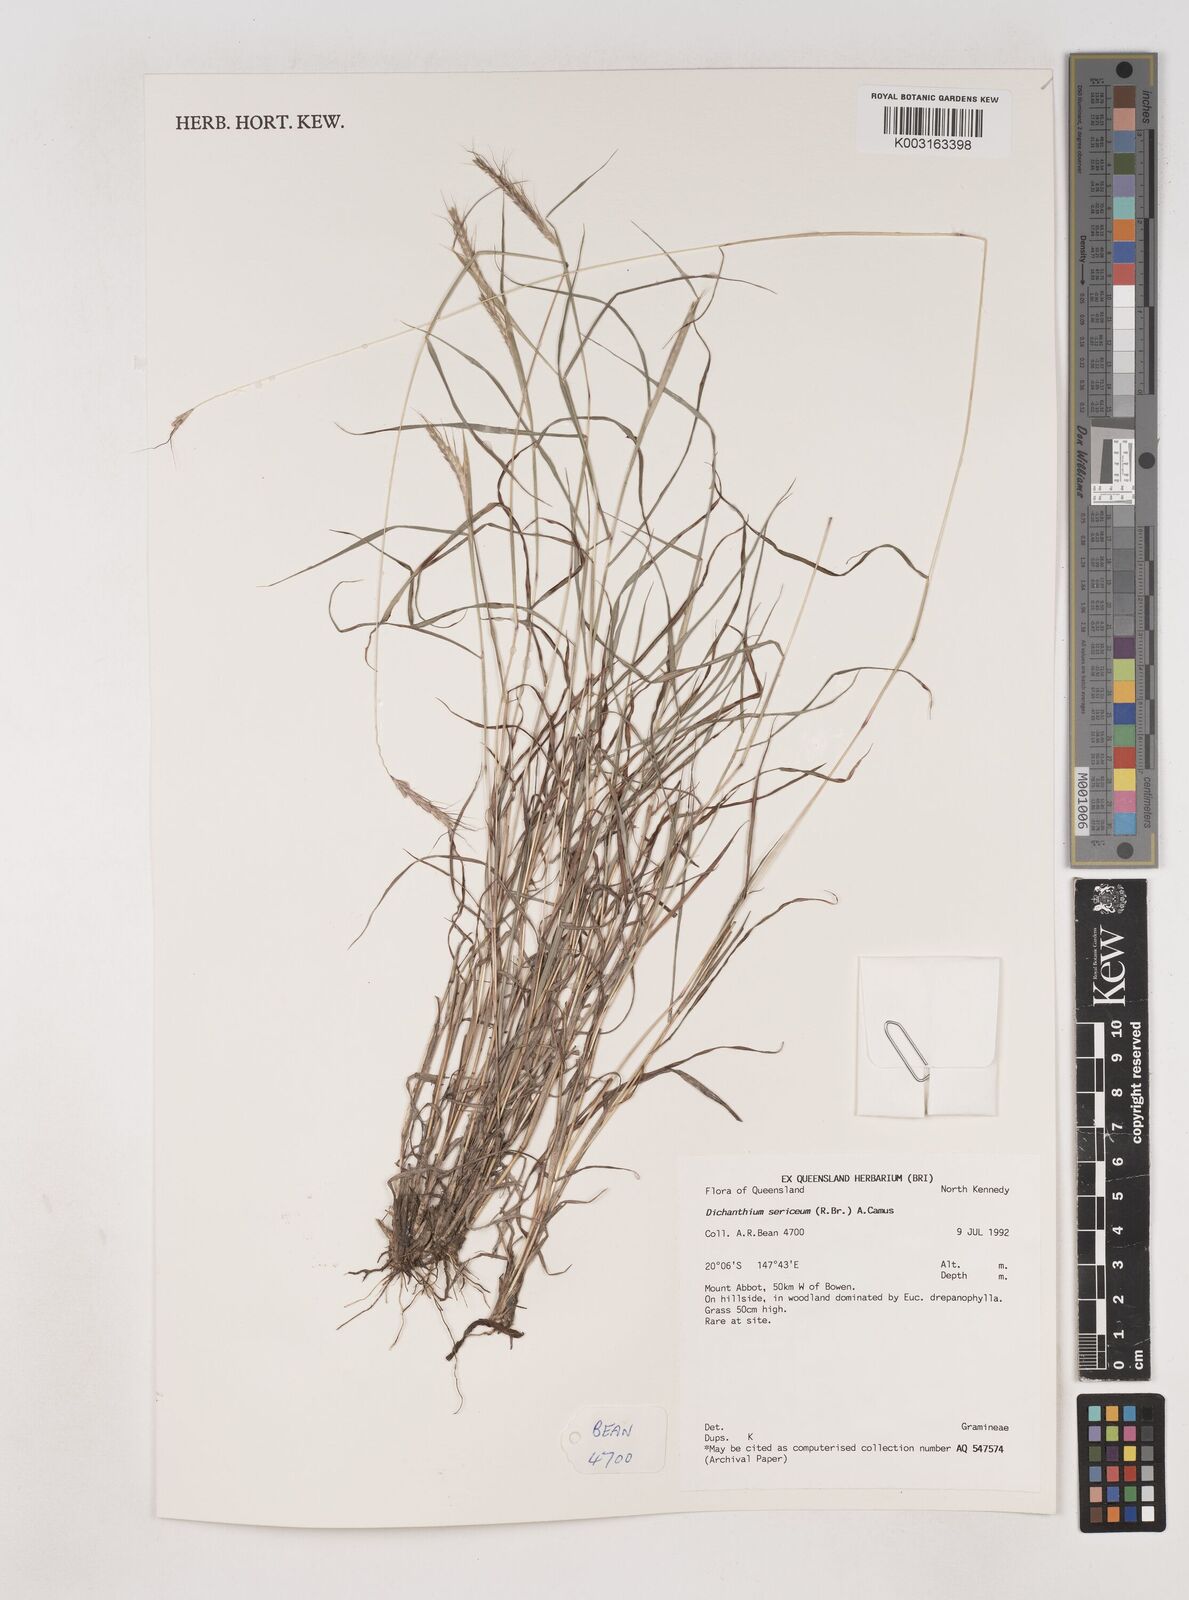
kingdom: Plantae
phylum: Tracheophyta
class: Liliopsida
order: Poales
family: Poaceae
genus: Dichanthium
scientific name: Dichanthium sericeum
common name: Silky bluestem
